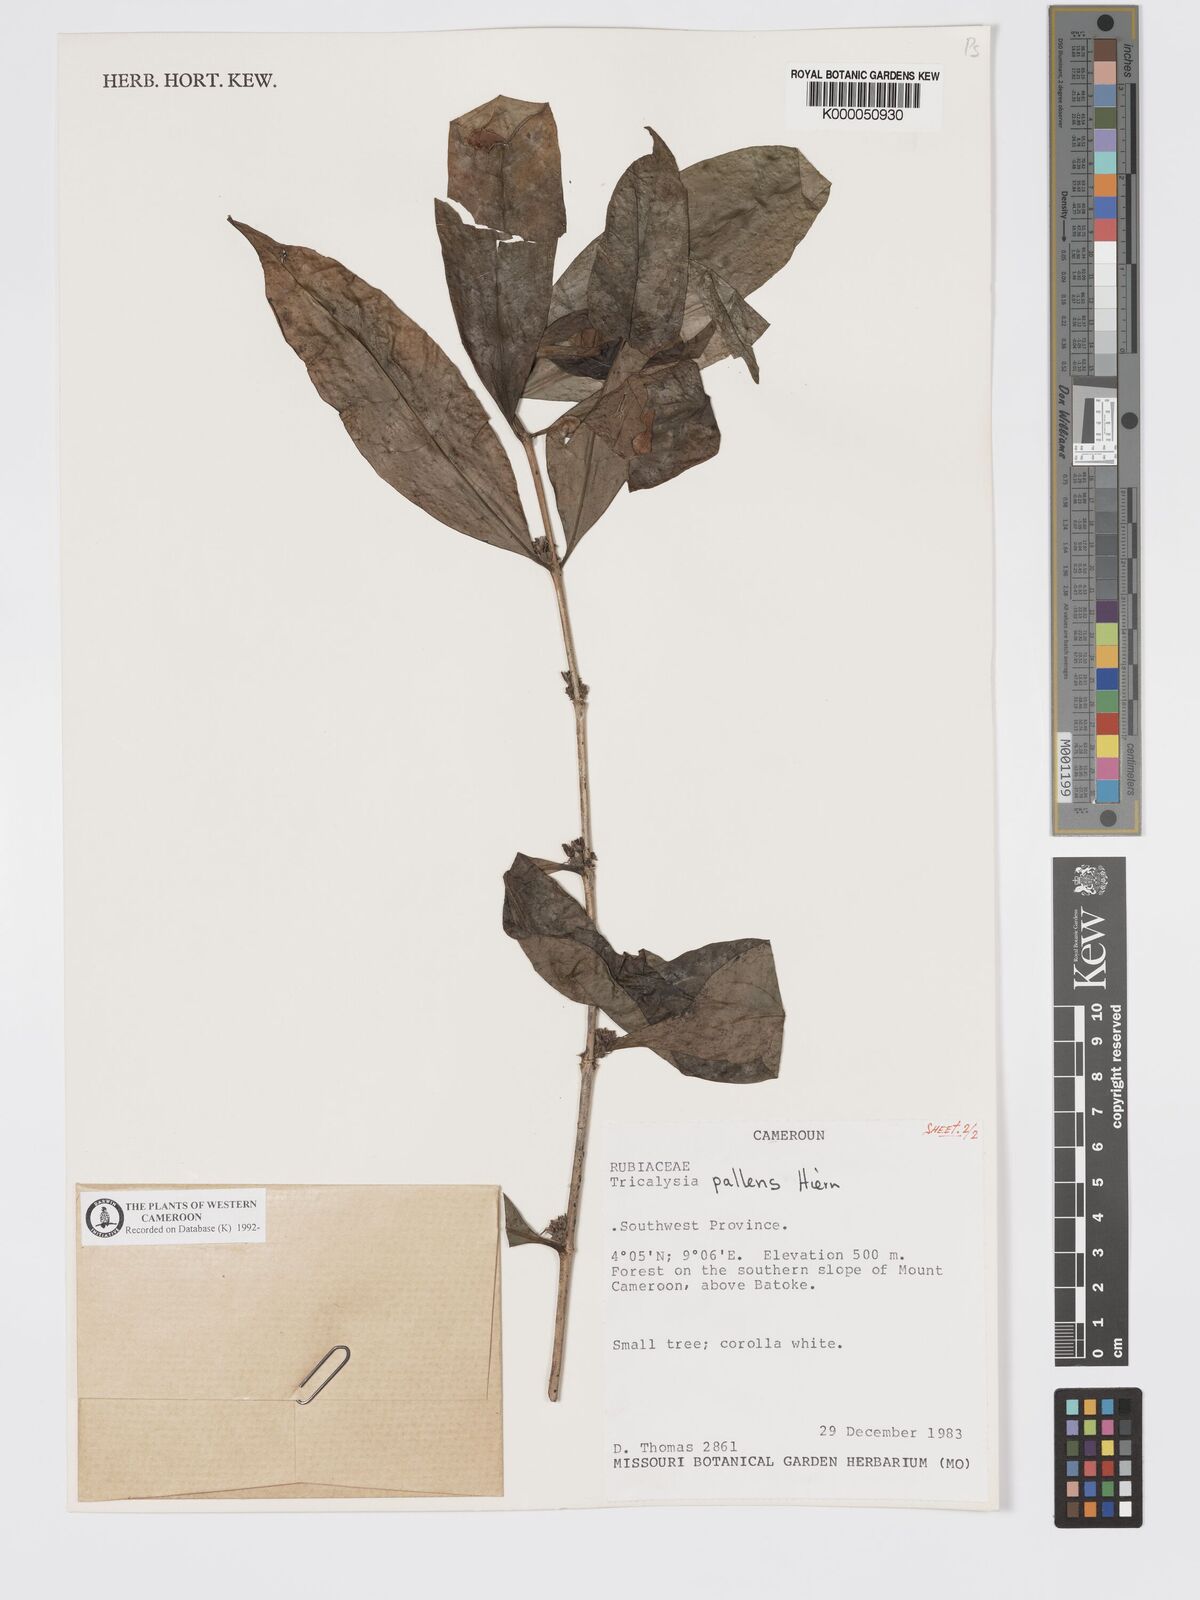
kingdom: Plantae
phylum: Tracheophyta
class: Magnoliopsida
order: Gentianales
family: Rubiaceae
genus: Tricalysia
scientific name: Tricalysia pallens
